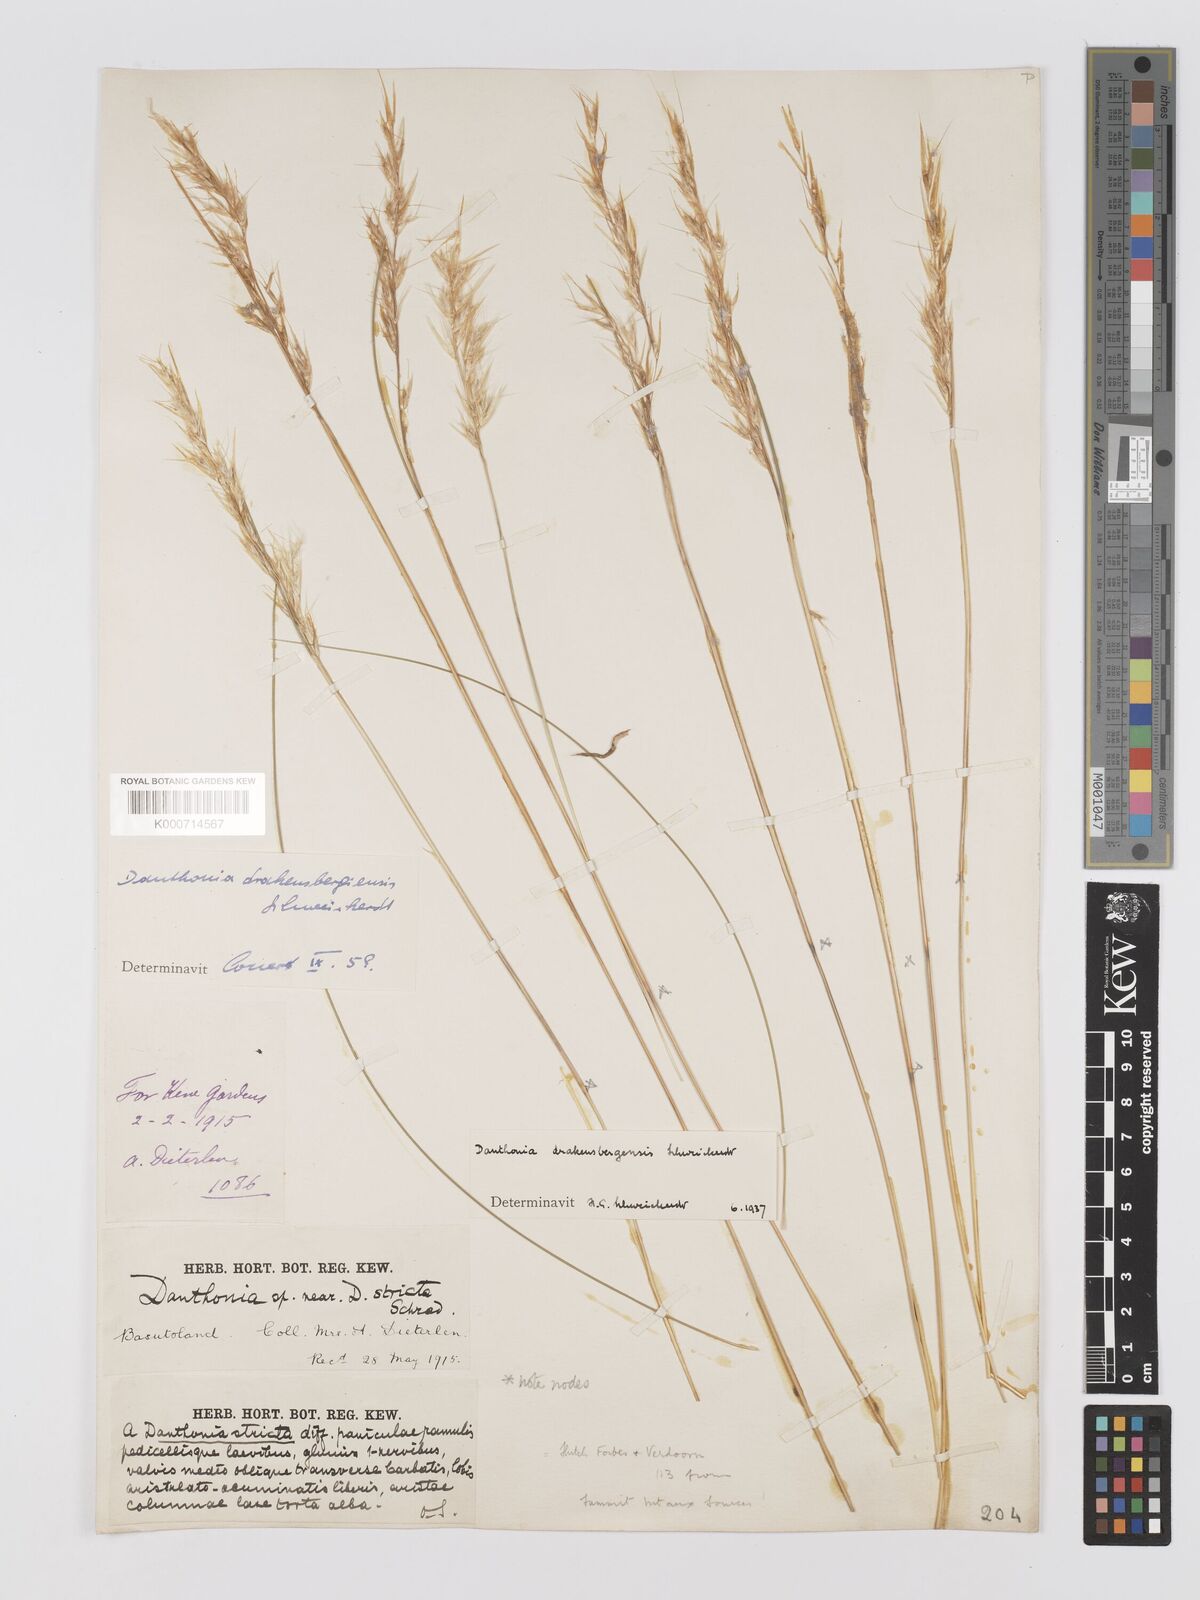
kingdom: Plantae
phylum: Tracheophyta
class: Liliopsida
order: Poales
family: Poaceae
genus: Rytidosperma
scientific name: Rytidosperma
